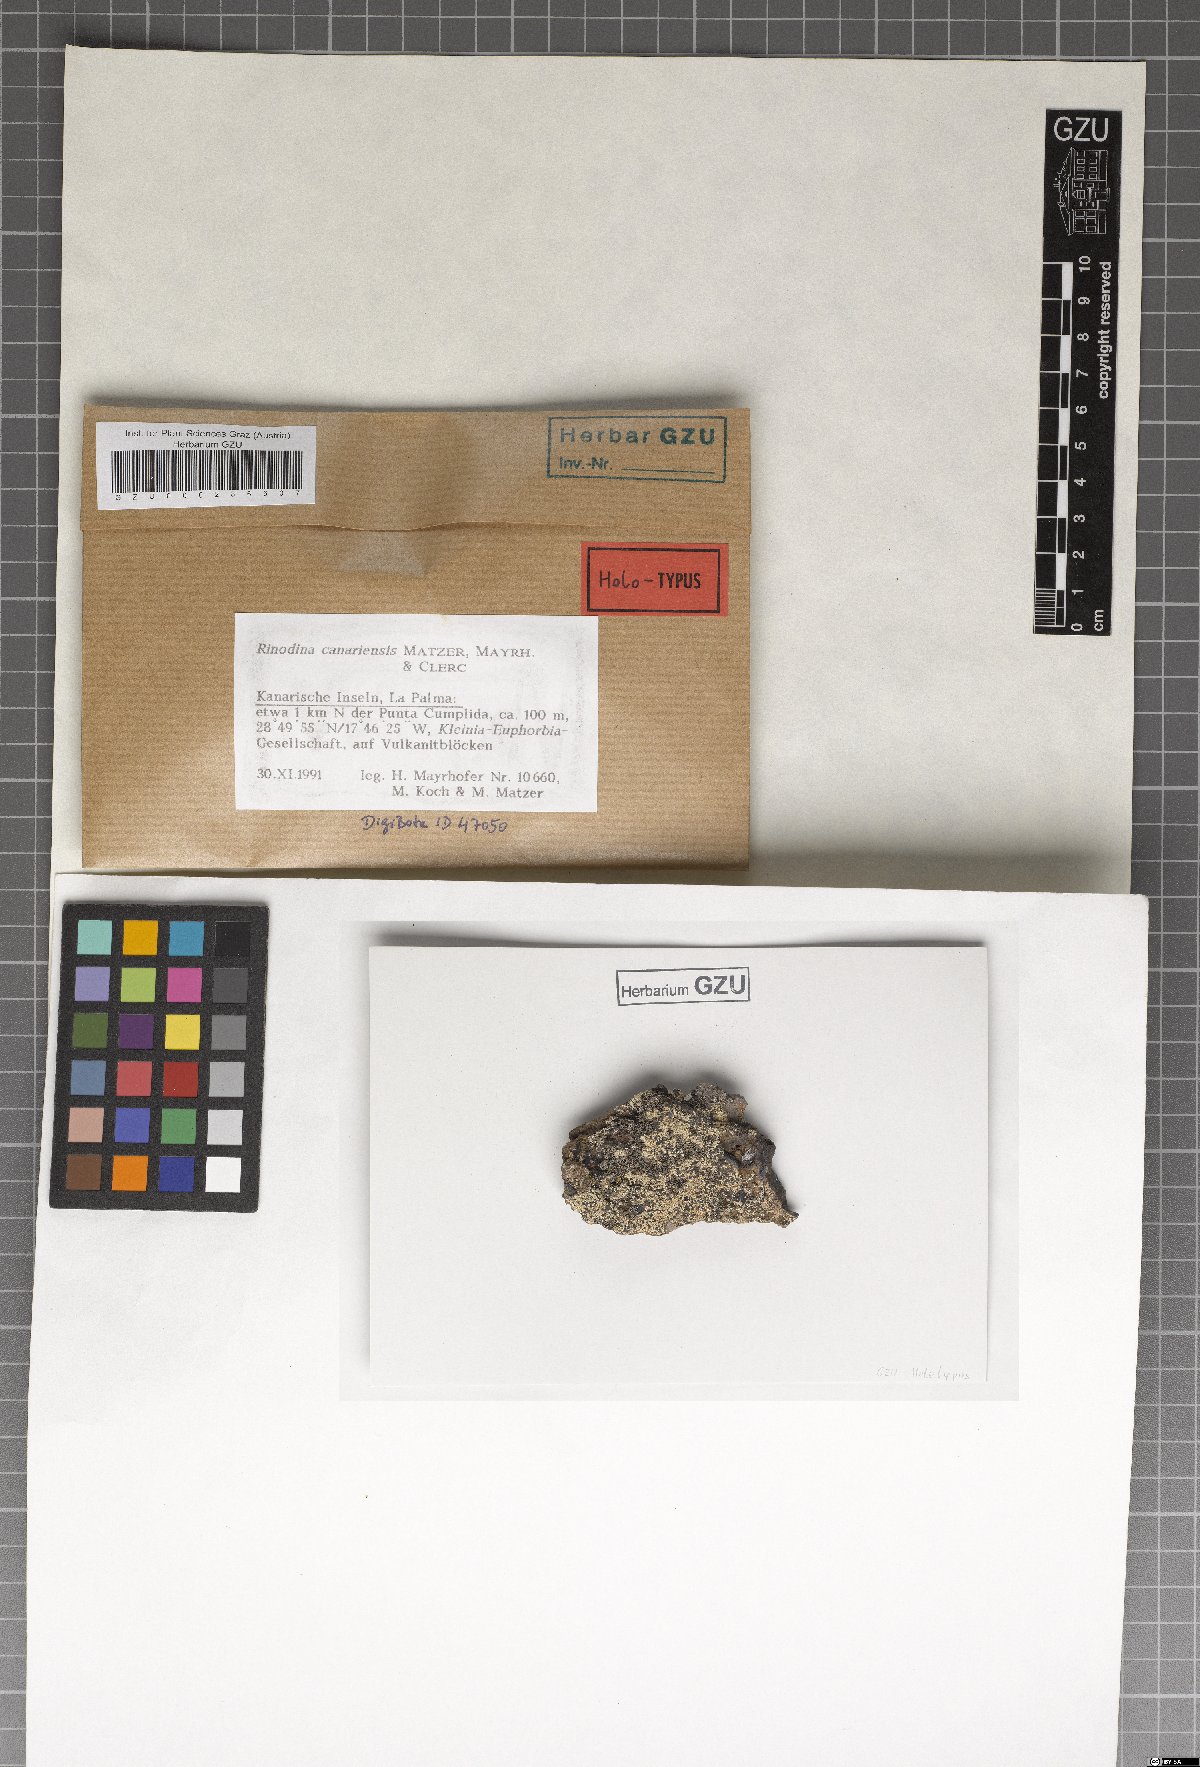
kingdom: Fungi
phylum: Ascomycota
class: Lecanoromycetes
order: Caliciales
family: Physciaceae
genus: Rinodina
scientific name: Rinodina canariensis
